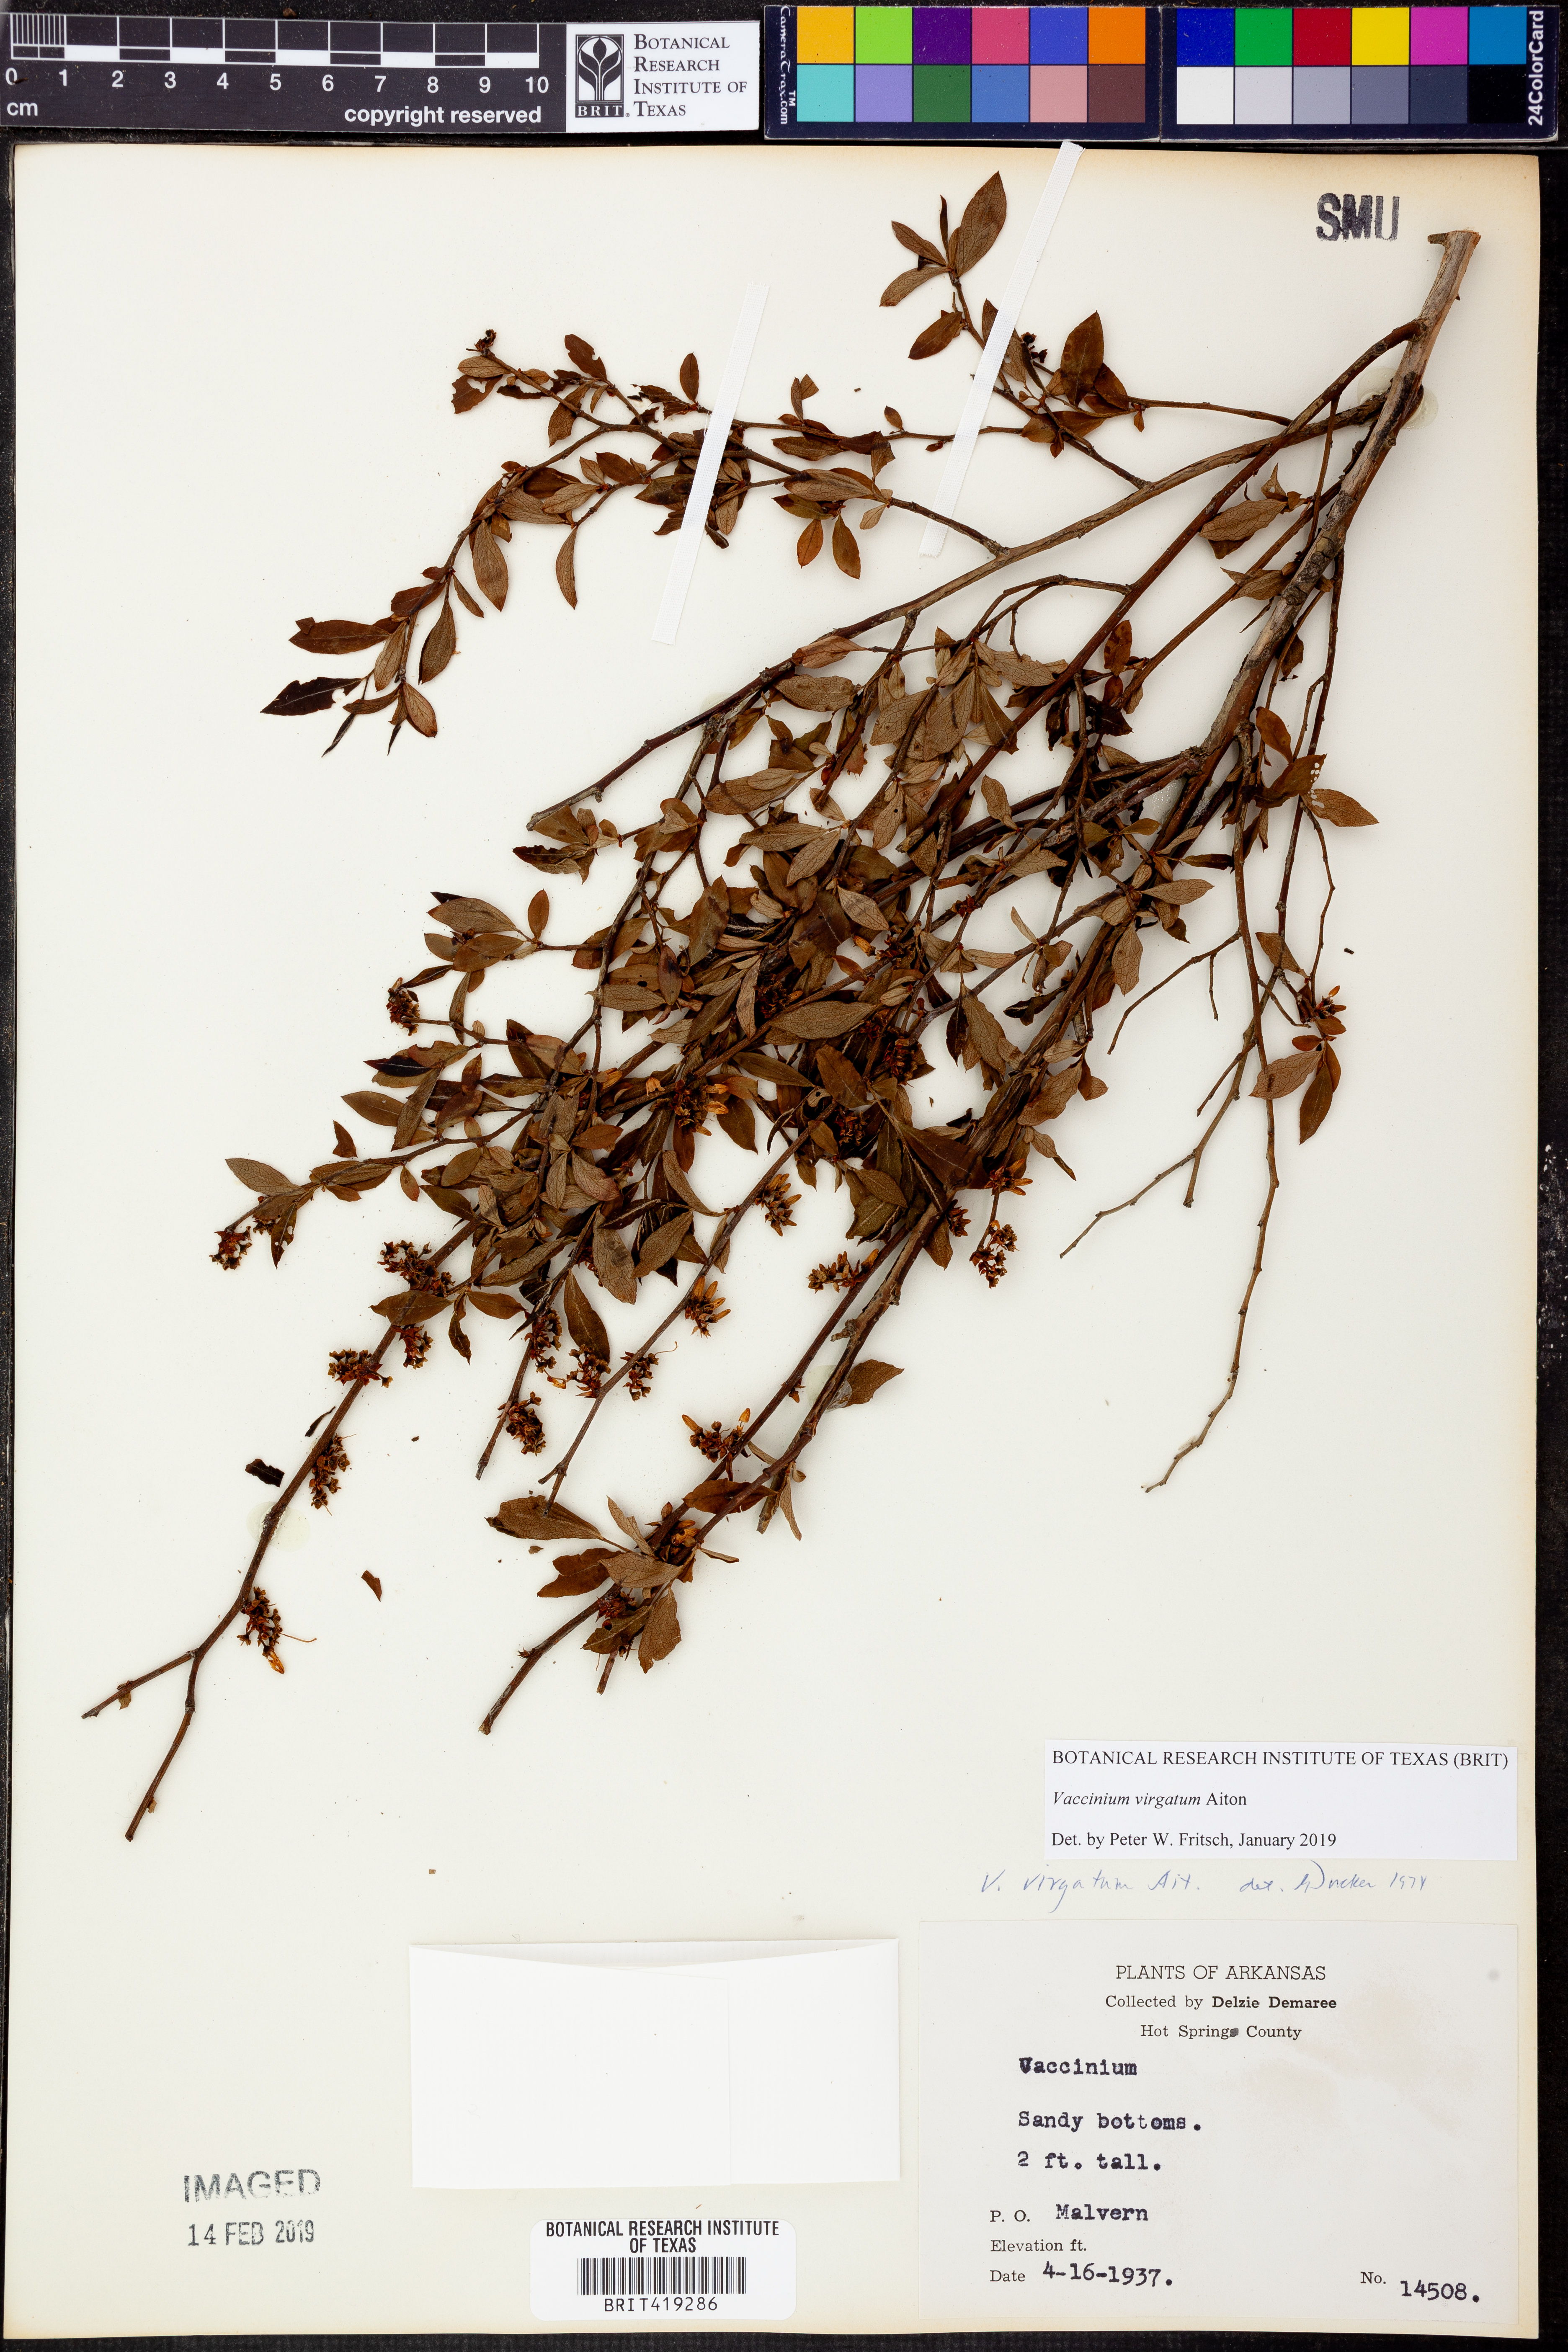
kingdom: Plantae
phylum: Tracheophyta
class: Magnoliopsida
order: Ericales
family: Ericaceae
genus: Vaccinium
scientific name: Vaccinium corymbosum
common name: Blueberry
